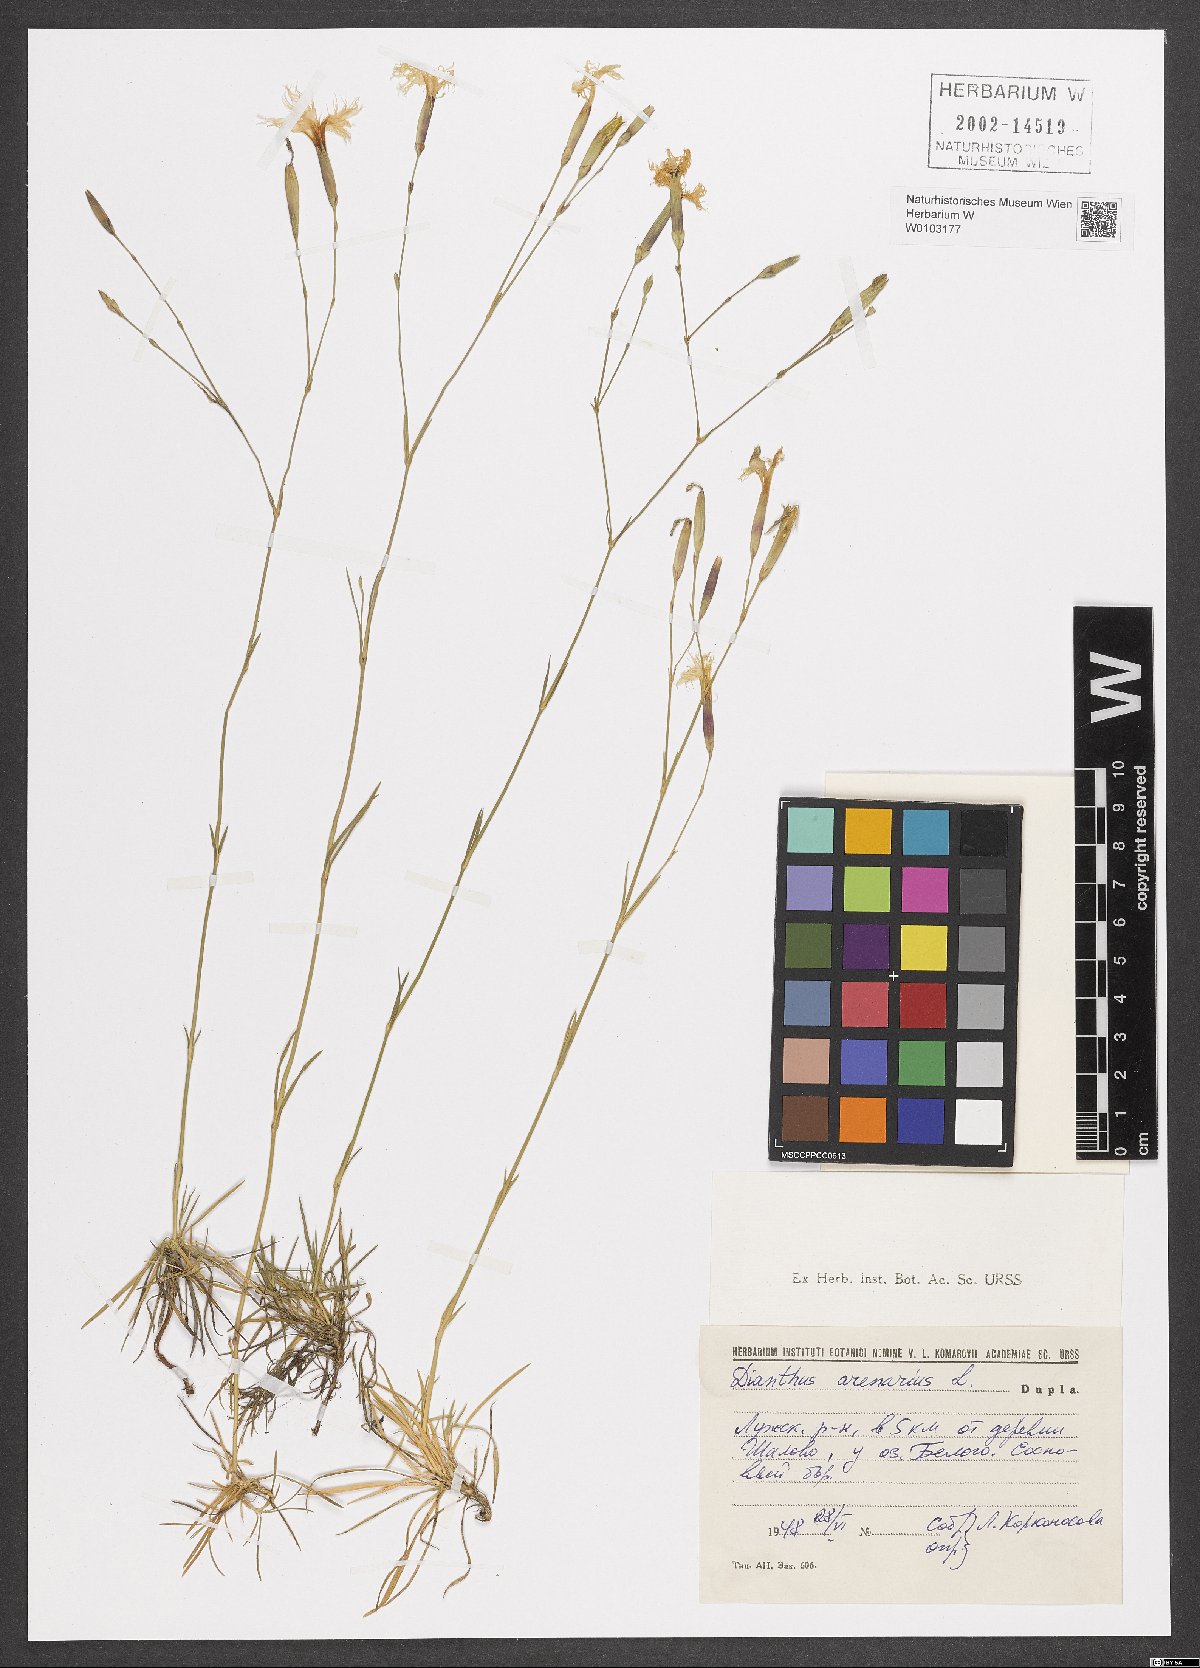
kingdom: Plantae
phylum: Tracheophyta
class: Magnoliopsida
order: Caryophyllales
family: Caryophyllaceae
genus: Dianthus
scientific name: Dianthus arenarius
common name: Stone pink
